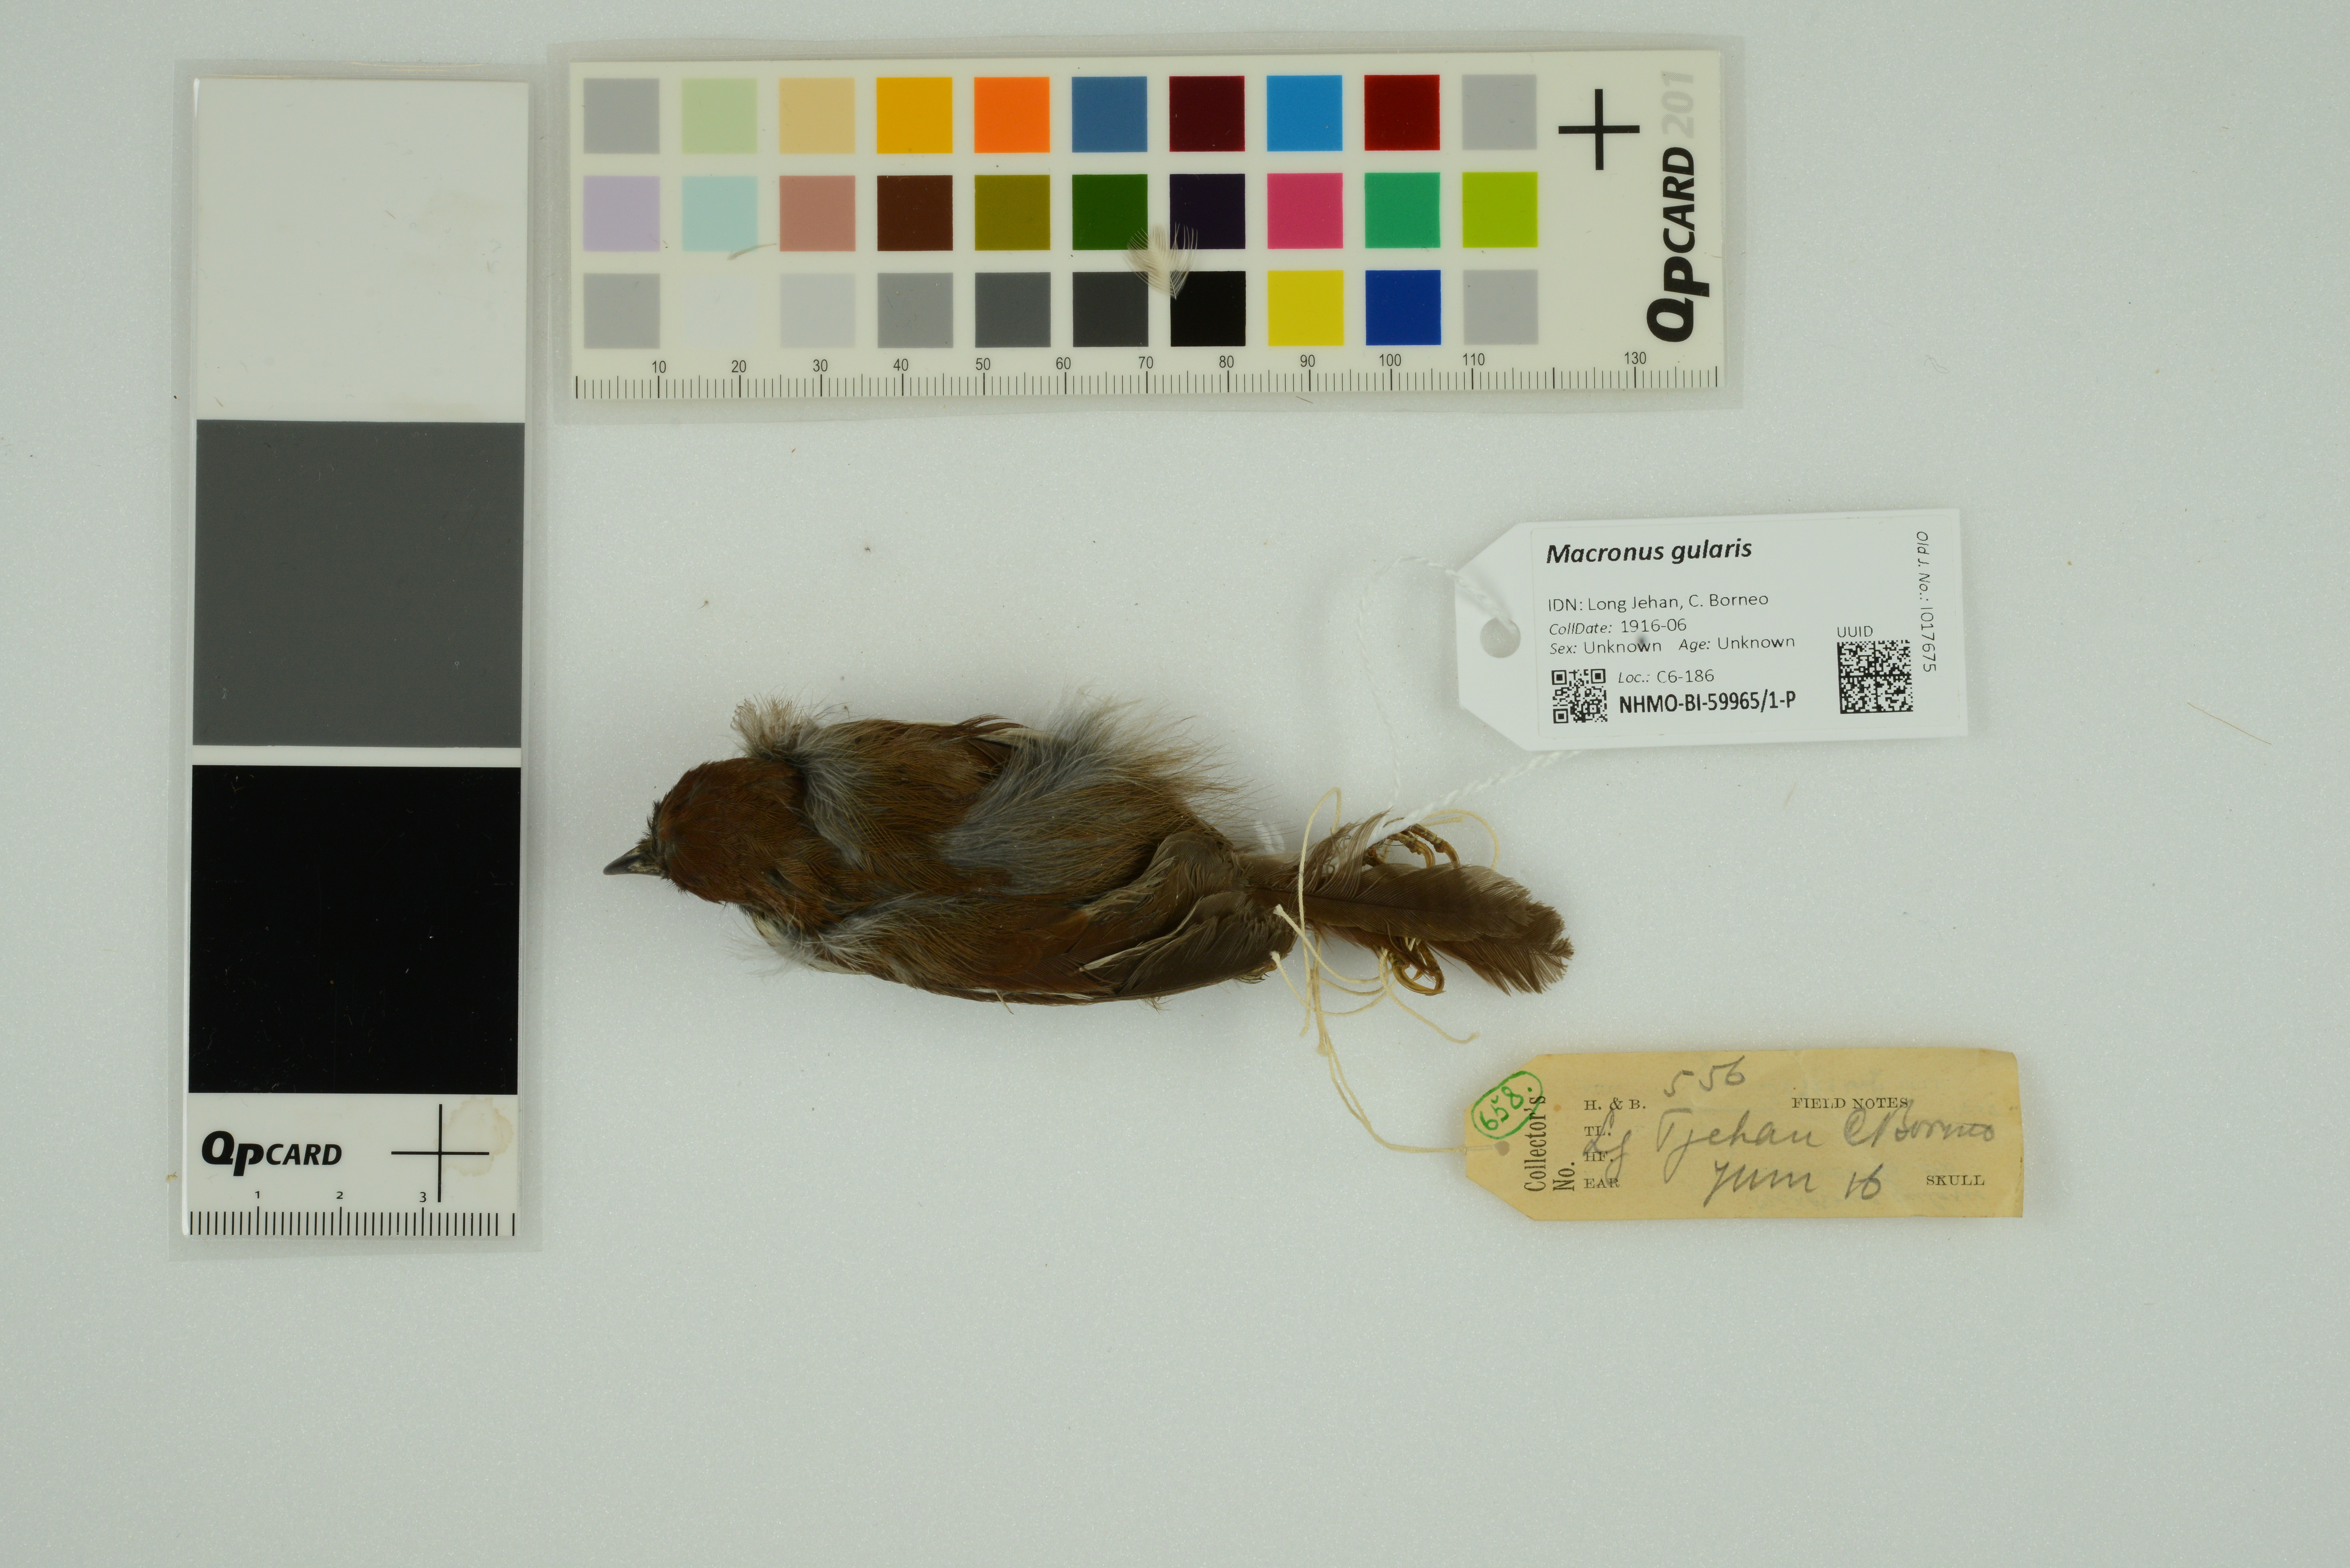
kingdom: Animalia
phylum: Chordata
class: Aves
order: Passeriformes
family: Timaliidae
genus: Macronus
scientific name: Macronus gularis
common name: Striped tit-babbler
